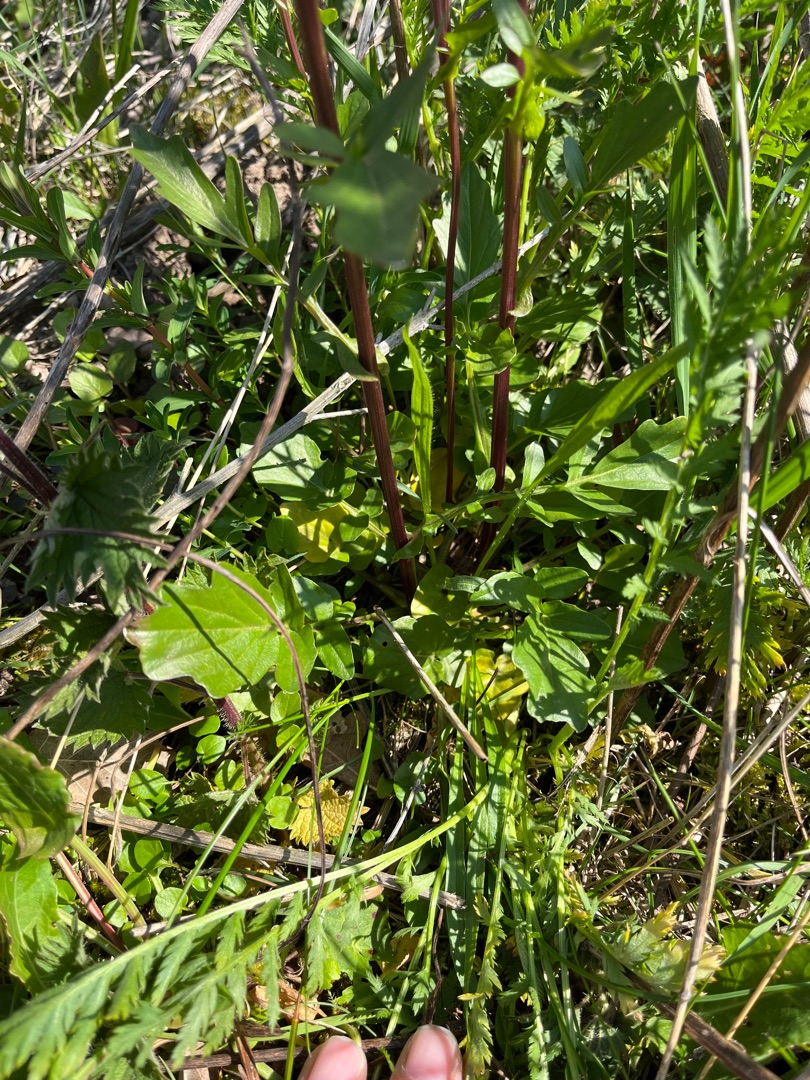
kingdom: Plantae
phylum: Tracheophyta
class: Magnoliopsida
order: Brassicales
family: Brassicaceae
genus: Barbarea
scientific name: Barbarea vulgaris
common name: Almindelig vinterkarse
